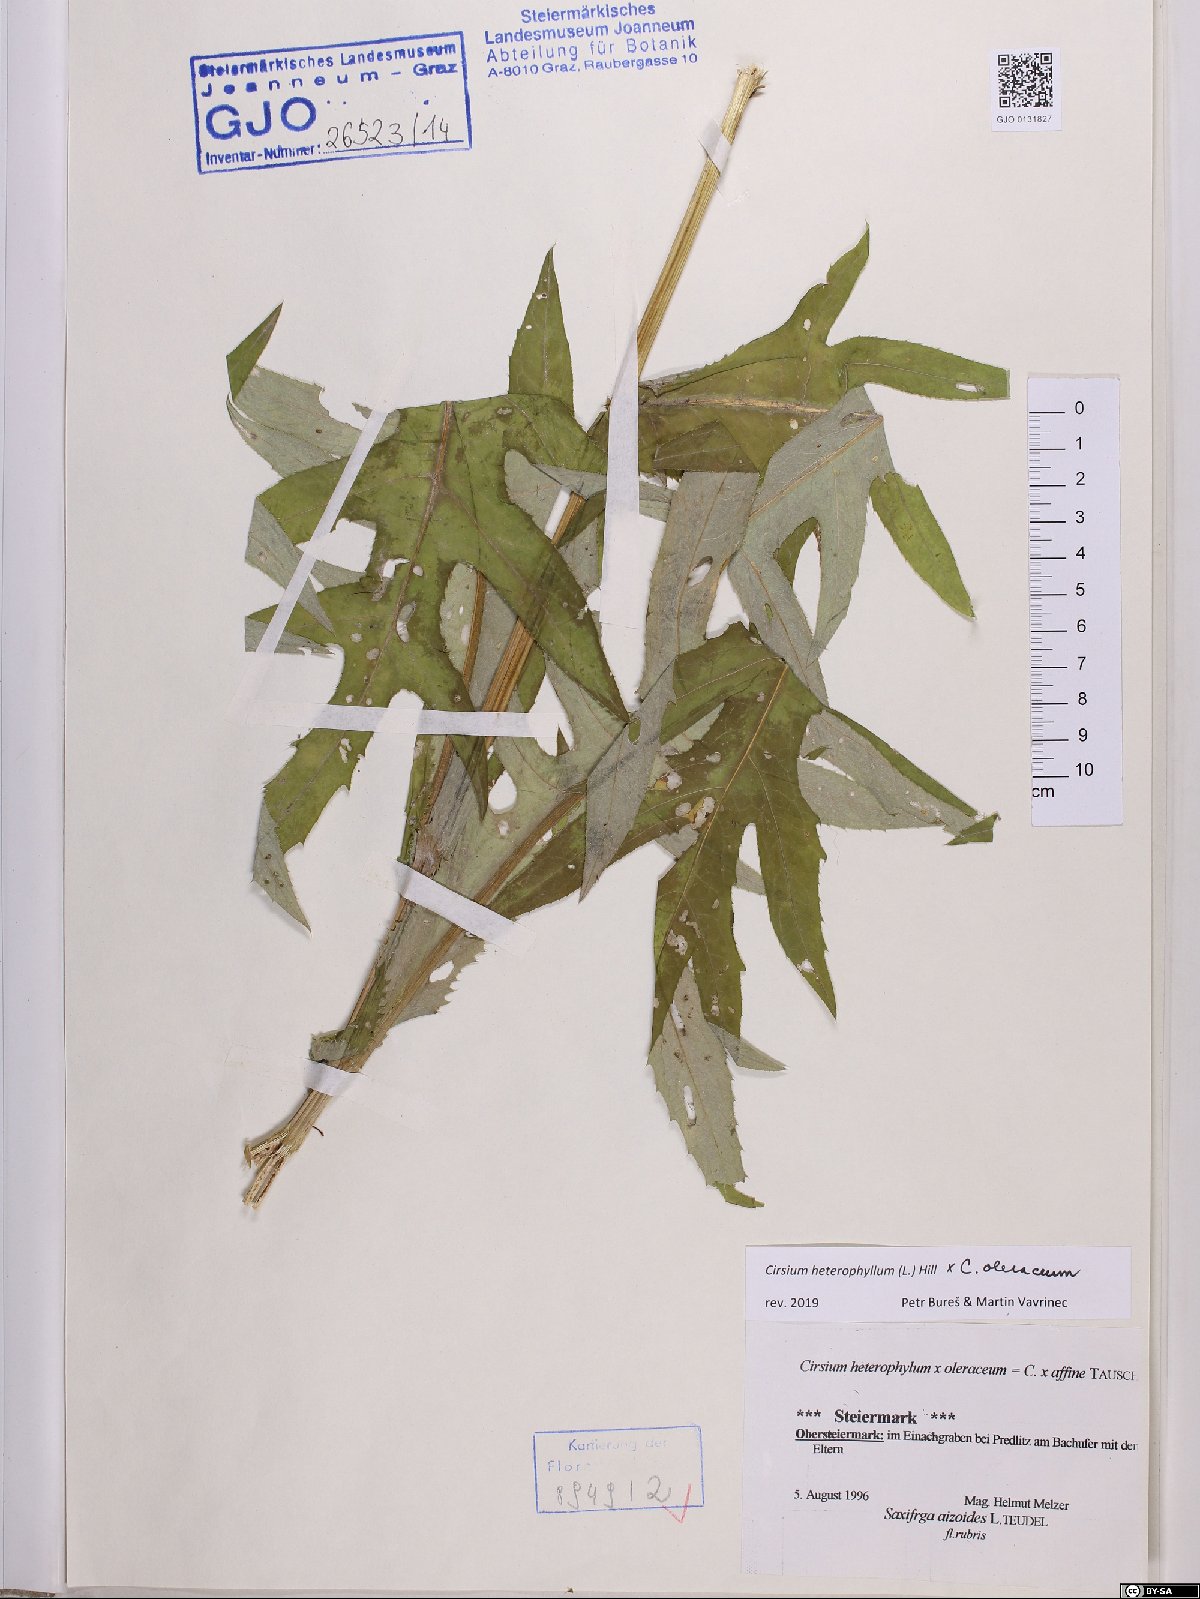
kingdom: Plantae
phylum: Tracheophyta
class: Magnoliopsida
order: Asterales
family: Asteraceae
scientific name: Asteraceae
